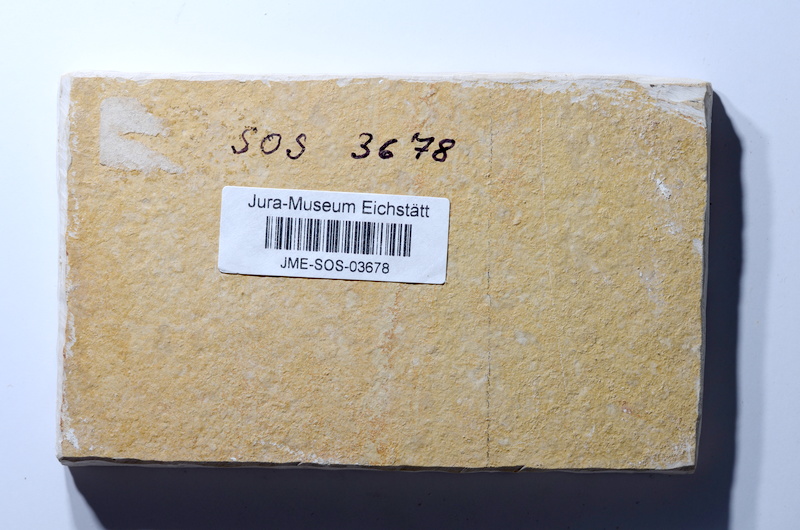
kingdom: Animalia
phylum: Chordata
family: Macrosemiidae
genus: Propterus
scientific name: Propterus microstomus
